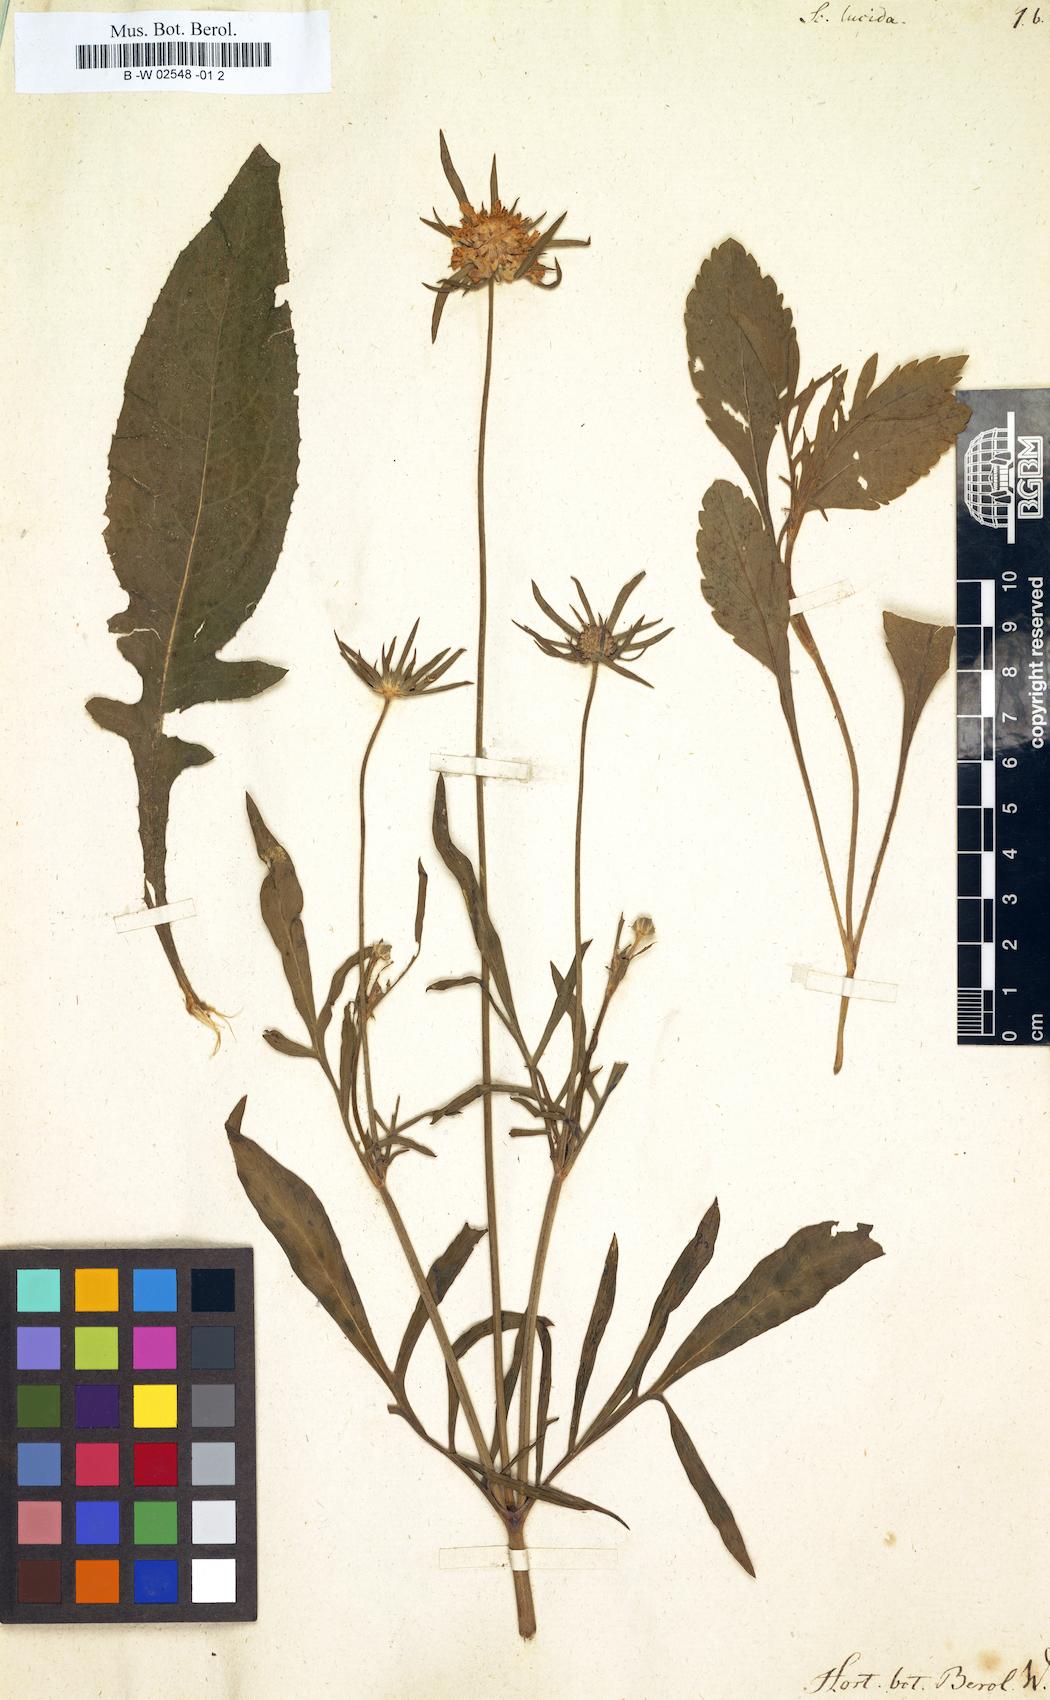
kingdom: Plantae
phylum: Tracheophyta
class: Magnoliopsida
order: Dipsacales
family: Caprifoliaceae
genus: Scabiosa
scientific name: Scabiosa lucida
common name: Shining scabious
